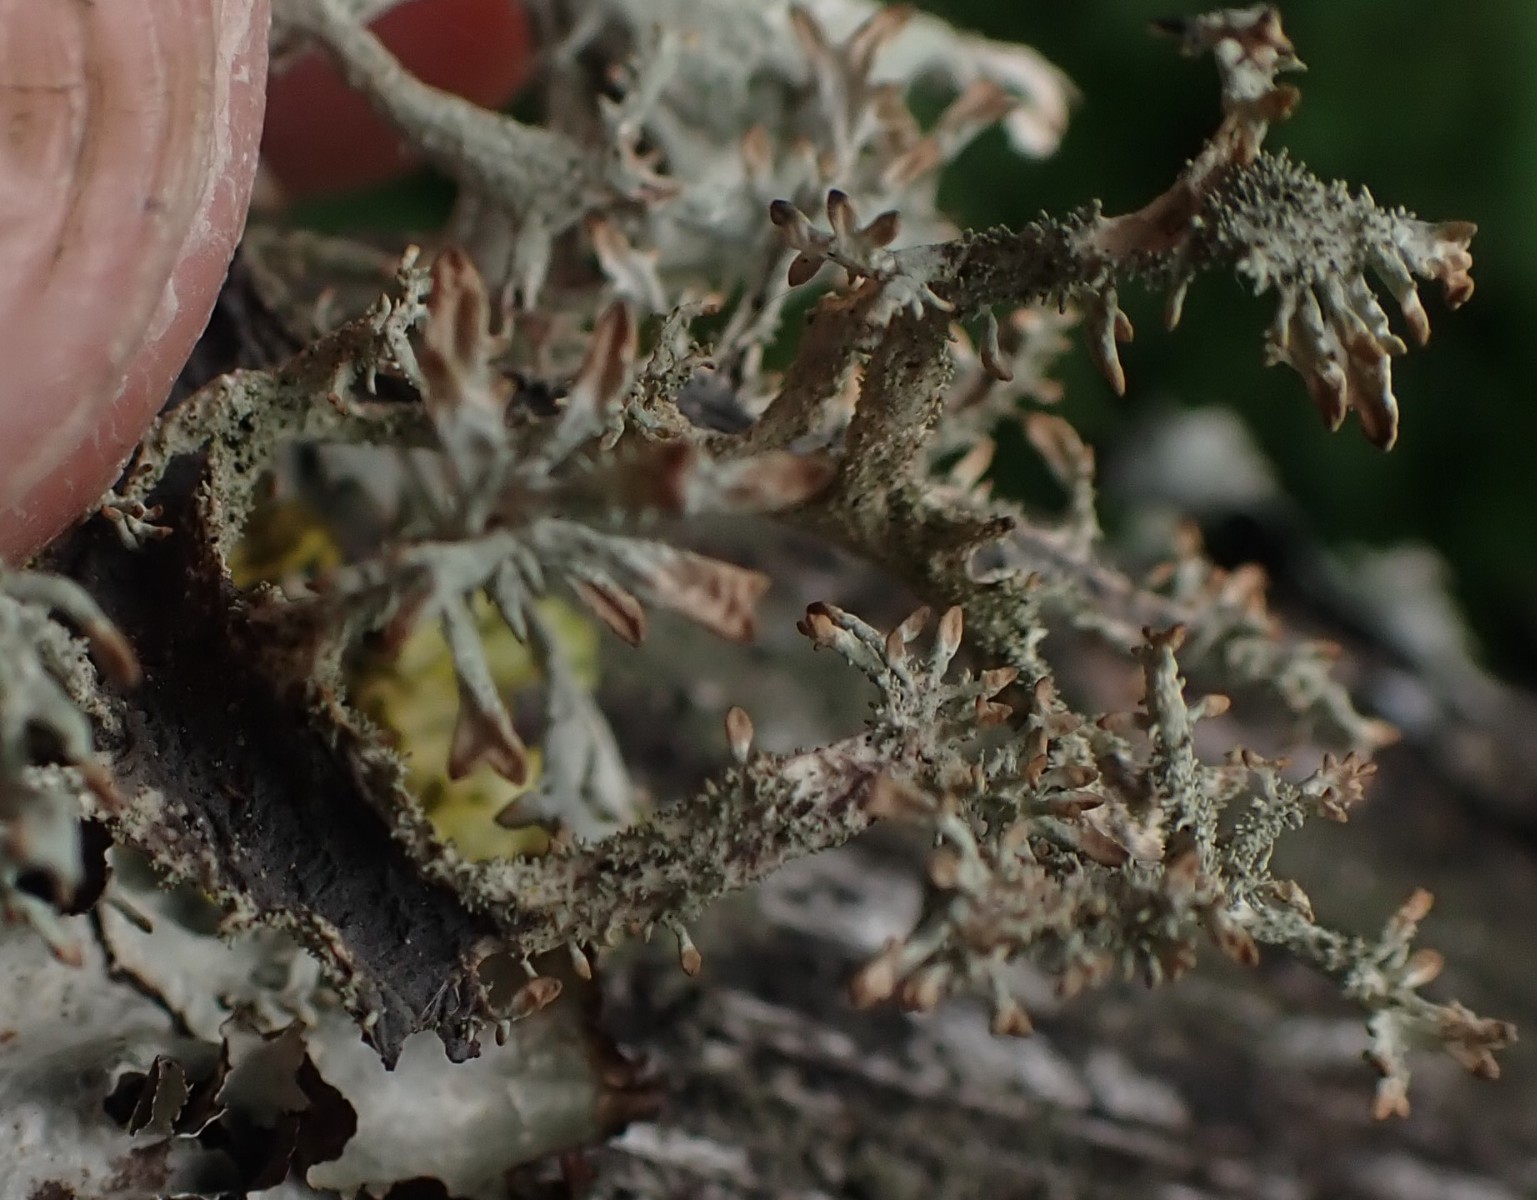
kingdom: Fungi
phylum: Ascomycota
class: Lecanoromycetes
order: Lecanorales
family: Parmeliaceae
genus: Pseudevernia
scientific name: Pseudevernia furfuracea
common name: grå fyrrelav
